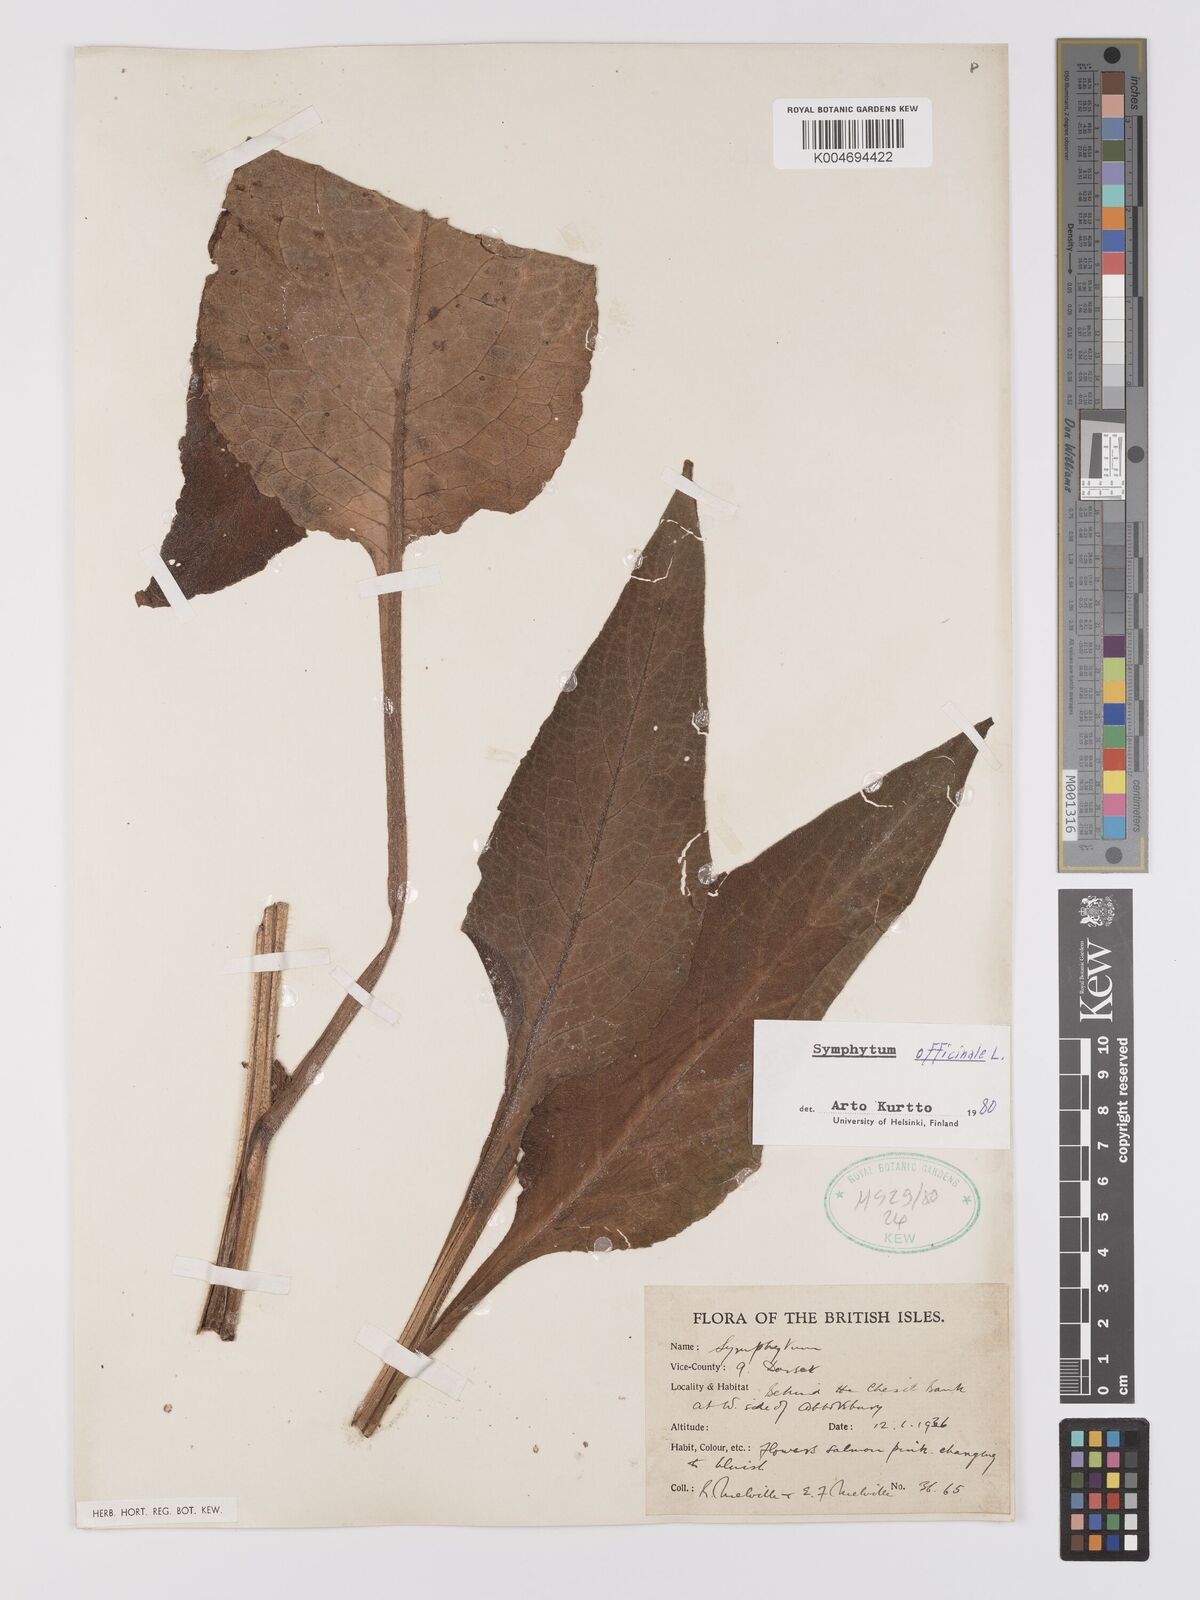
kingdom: Plantae
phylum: Tracheophyta
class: Magnoliopsida
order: Boraginales
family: Boraginaceae
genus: Symphytum
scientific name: Symphytum officinale
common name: Common comfrey
